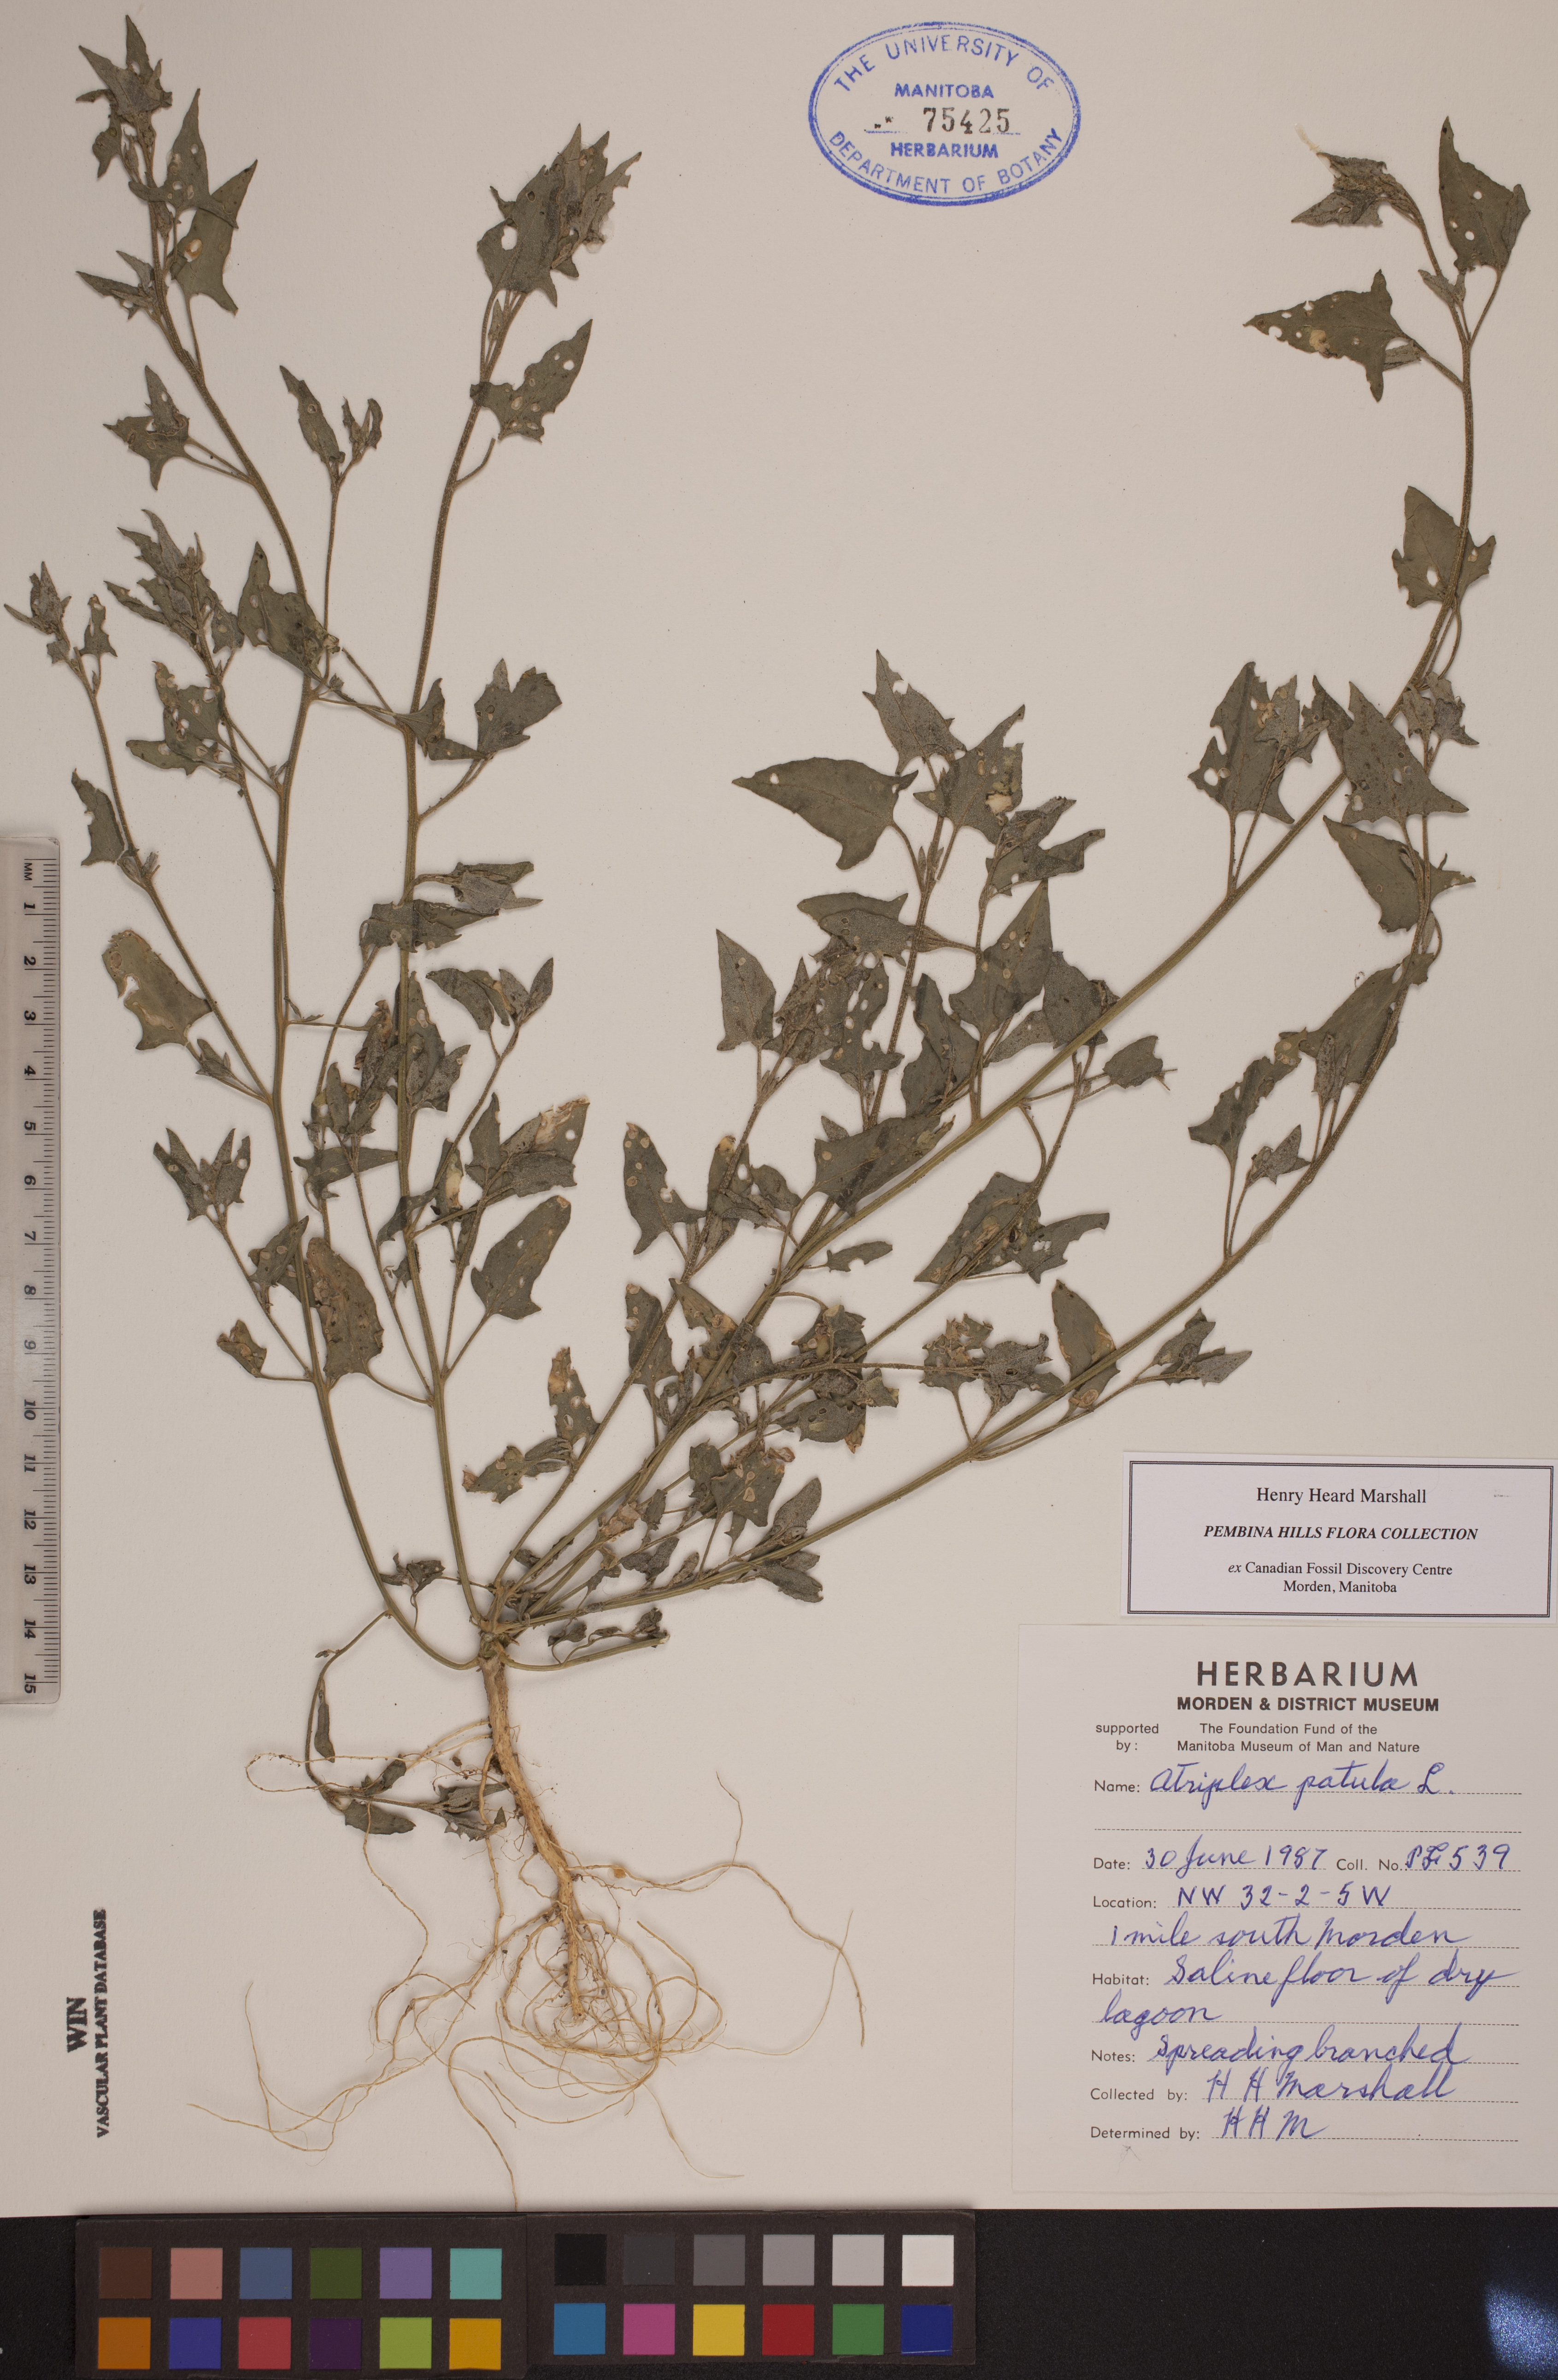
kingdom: Plantae
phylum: Tracheophyta
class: Magnoliopsida
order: Caryophyllales
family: Amaranthaceae
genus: Atriplex
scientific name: Atriplex patula
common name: Common orache
